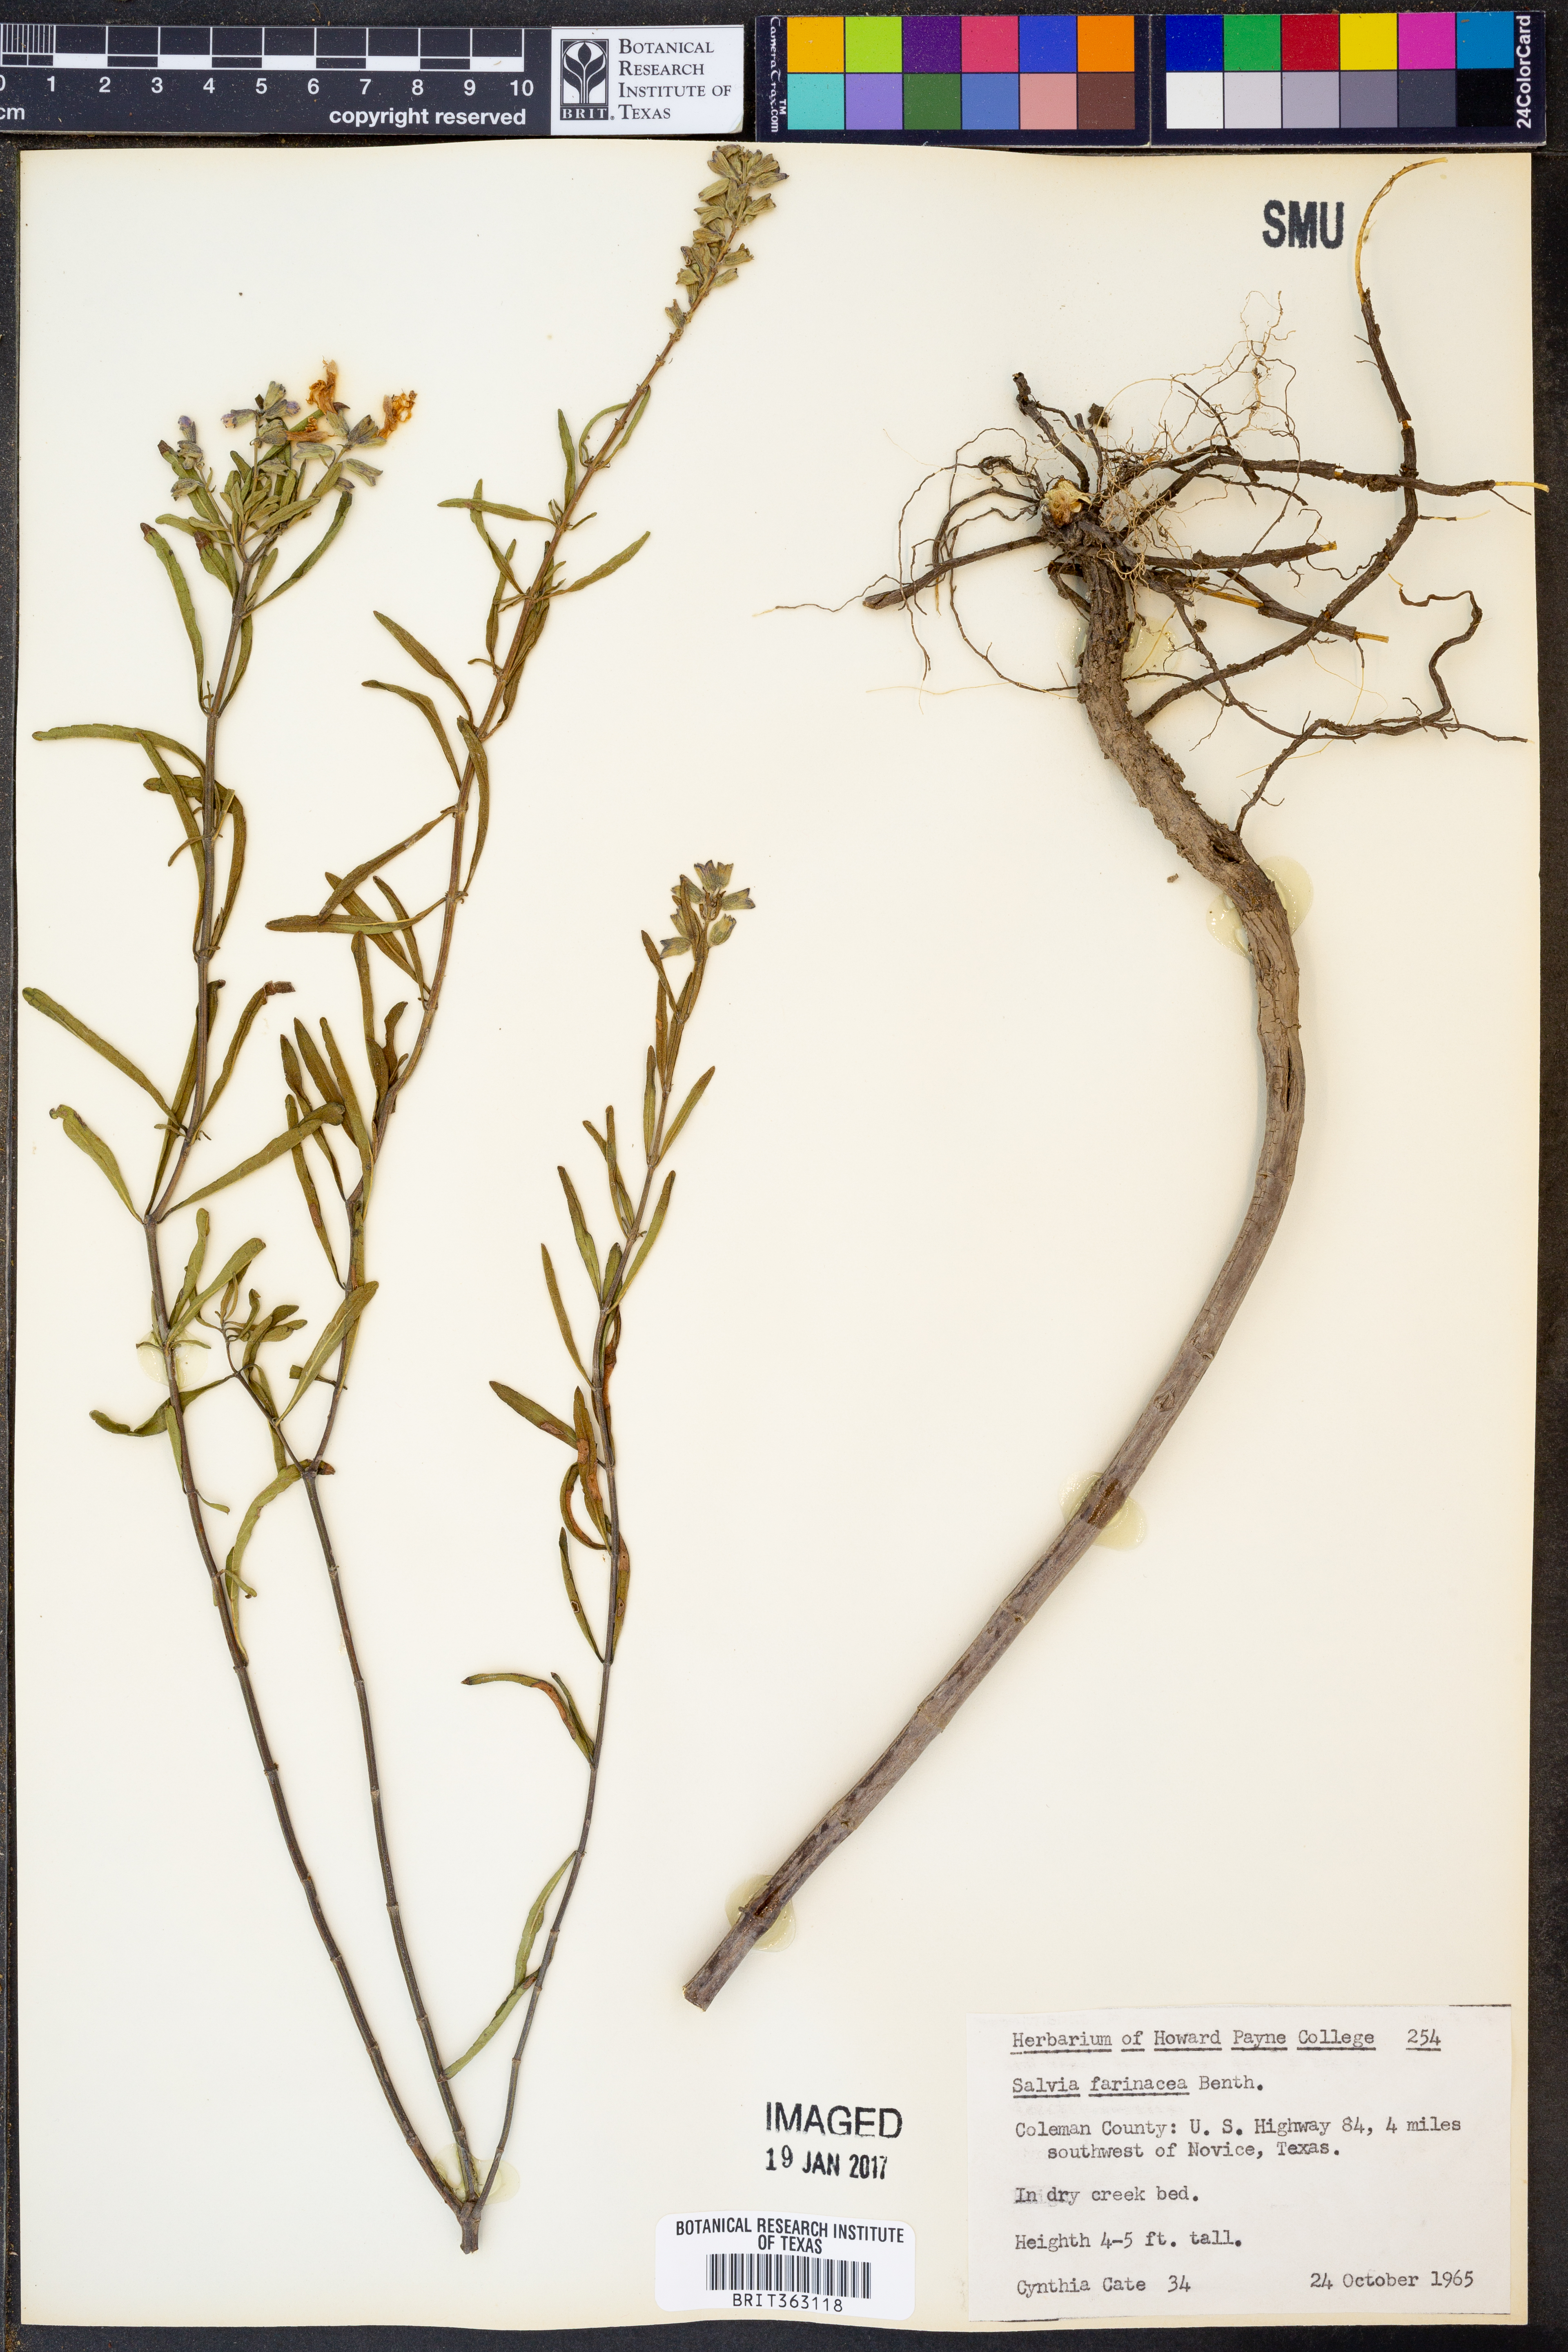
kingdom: Plantae
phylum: Tracheophyta
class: Magnoliopsida
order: Lamiales
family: Lamiaceae
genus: Salvia
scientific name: Salvia farinacea
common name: Mealy sage
